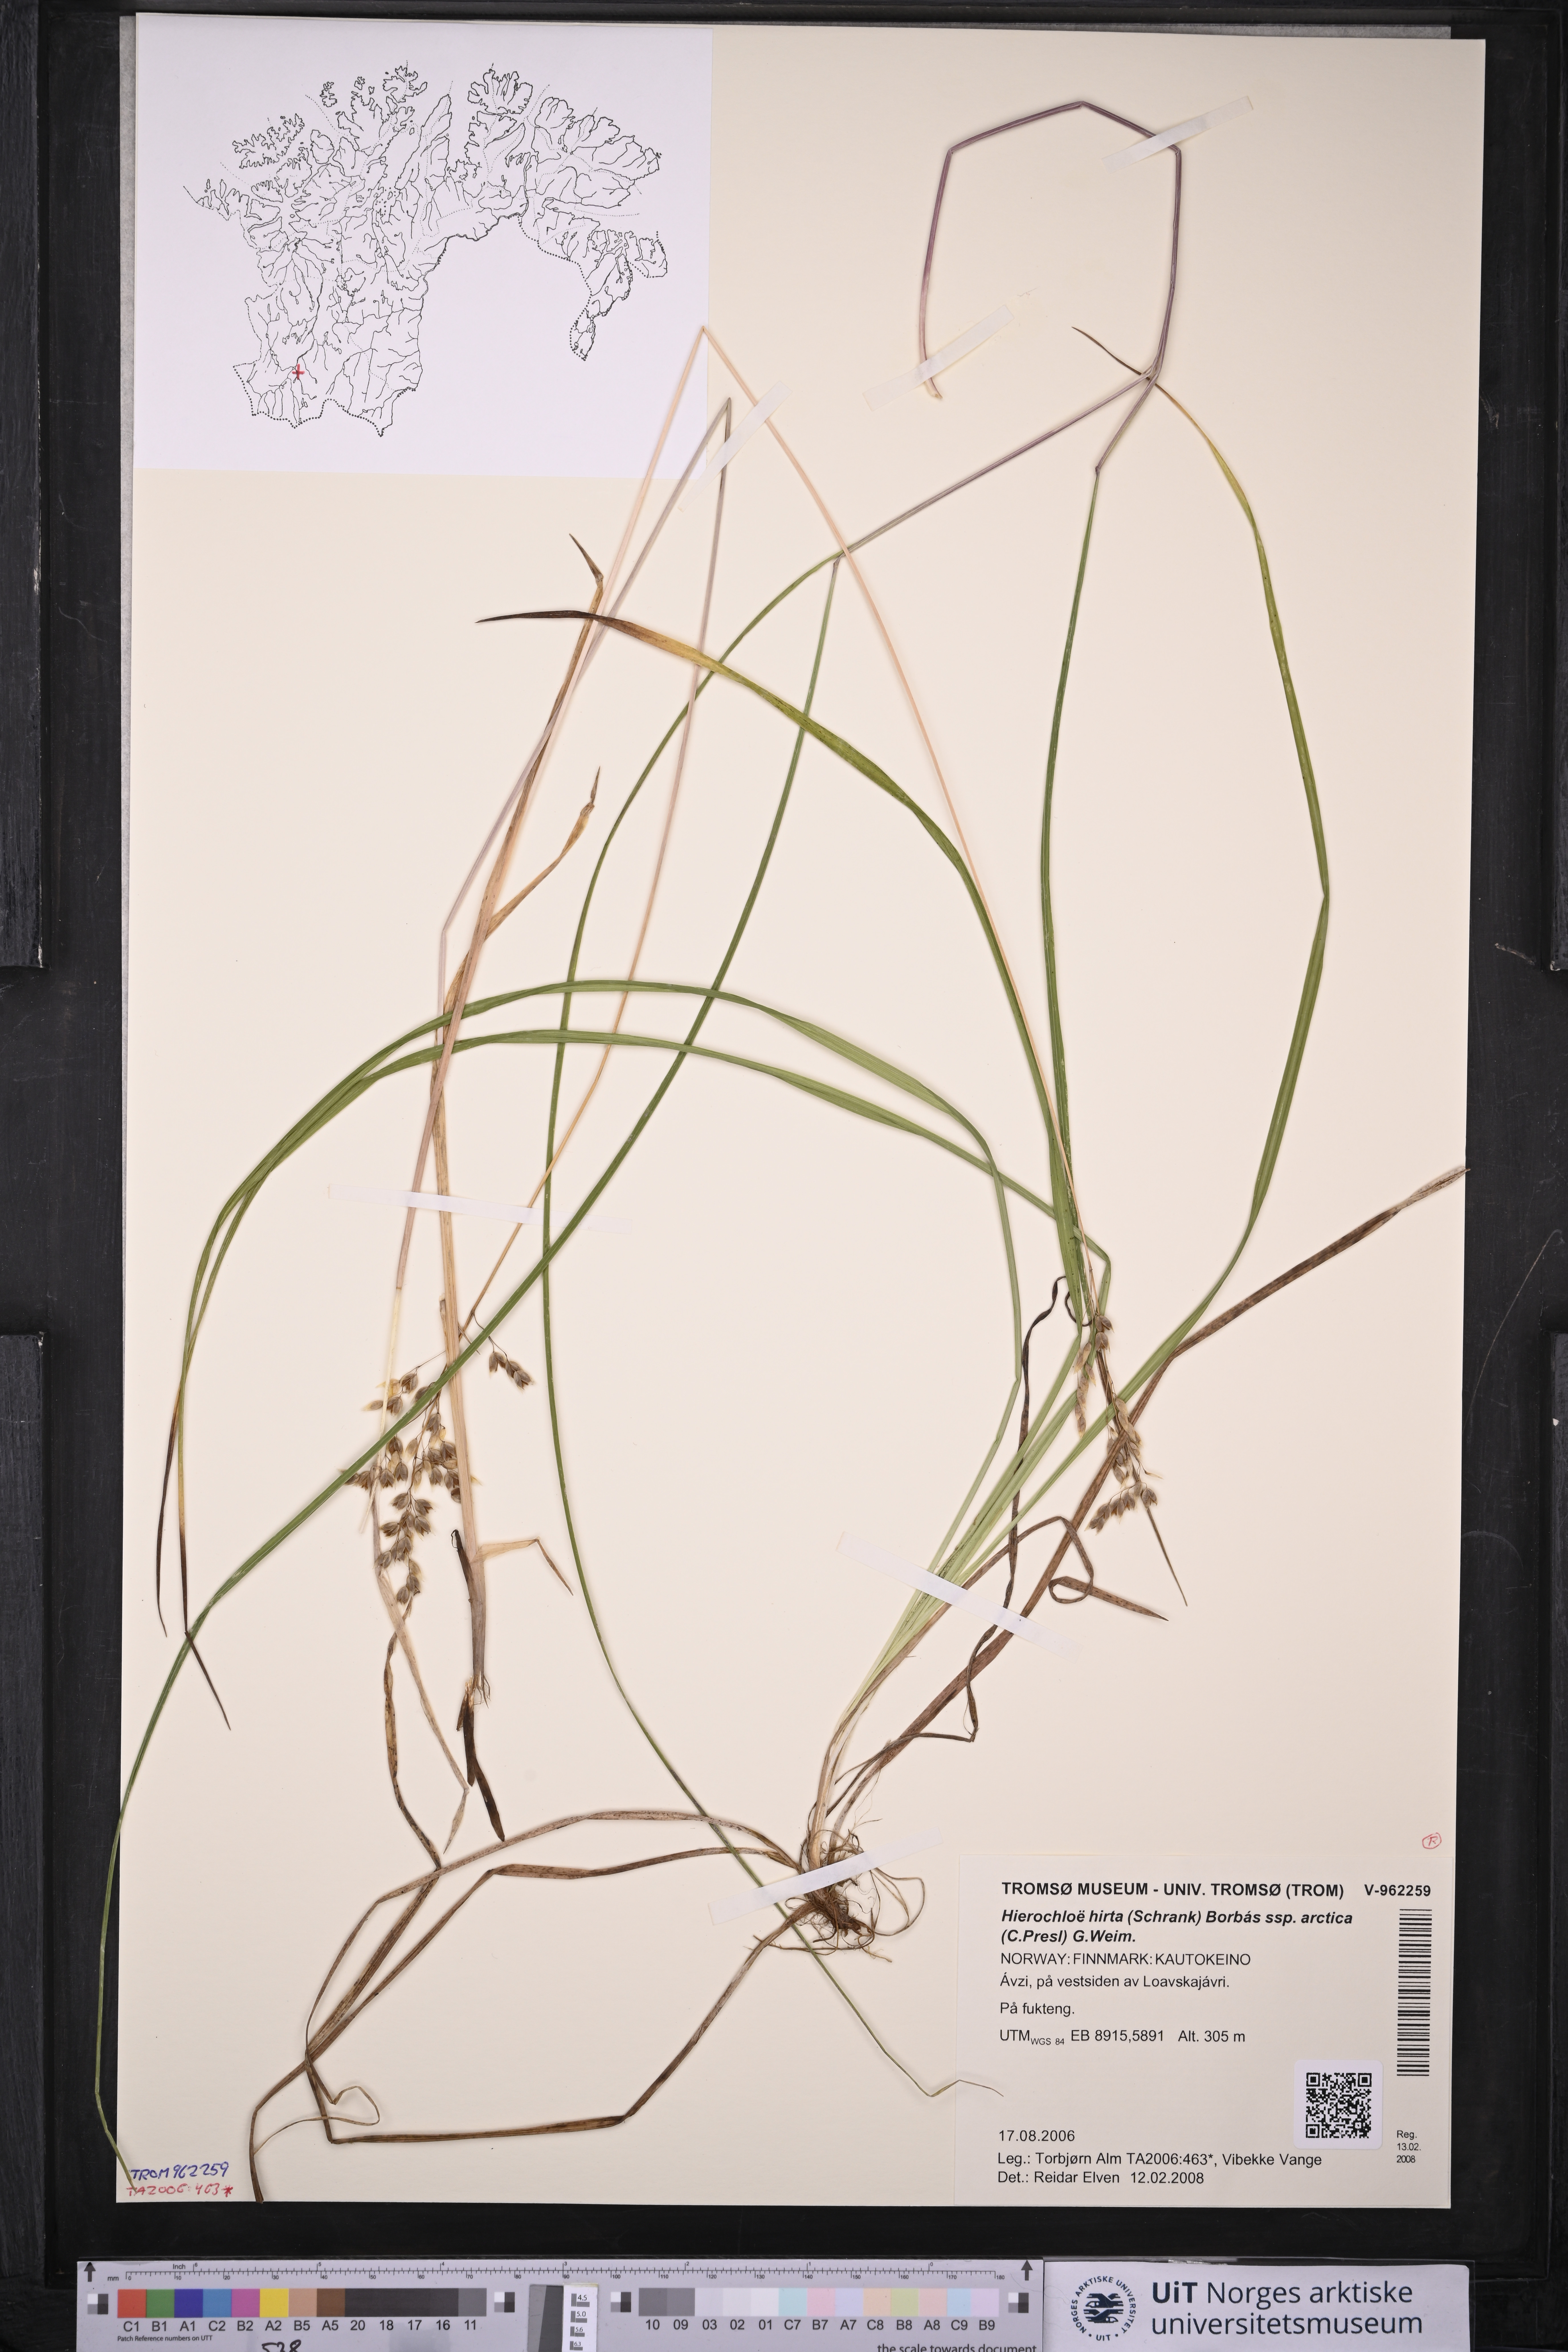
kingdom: Plantae
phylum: Tracheophyta
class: Liliopsida
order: Poales
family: Poaceae
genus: Anthoxanthum
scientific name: Anthoxanthum nitens
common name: Holy grass
